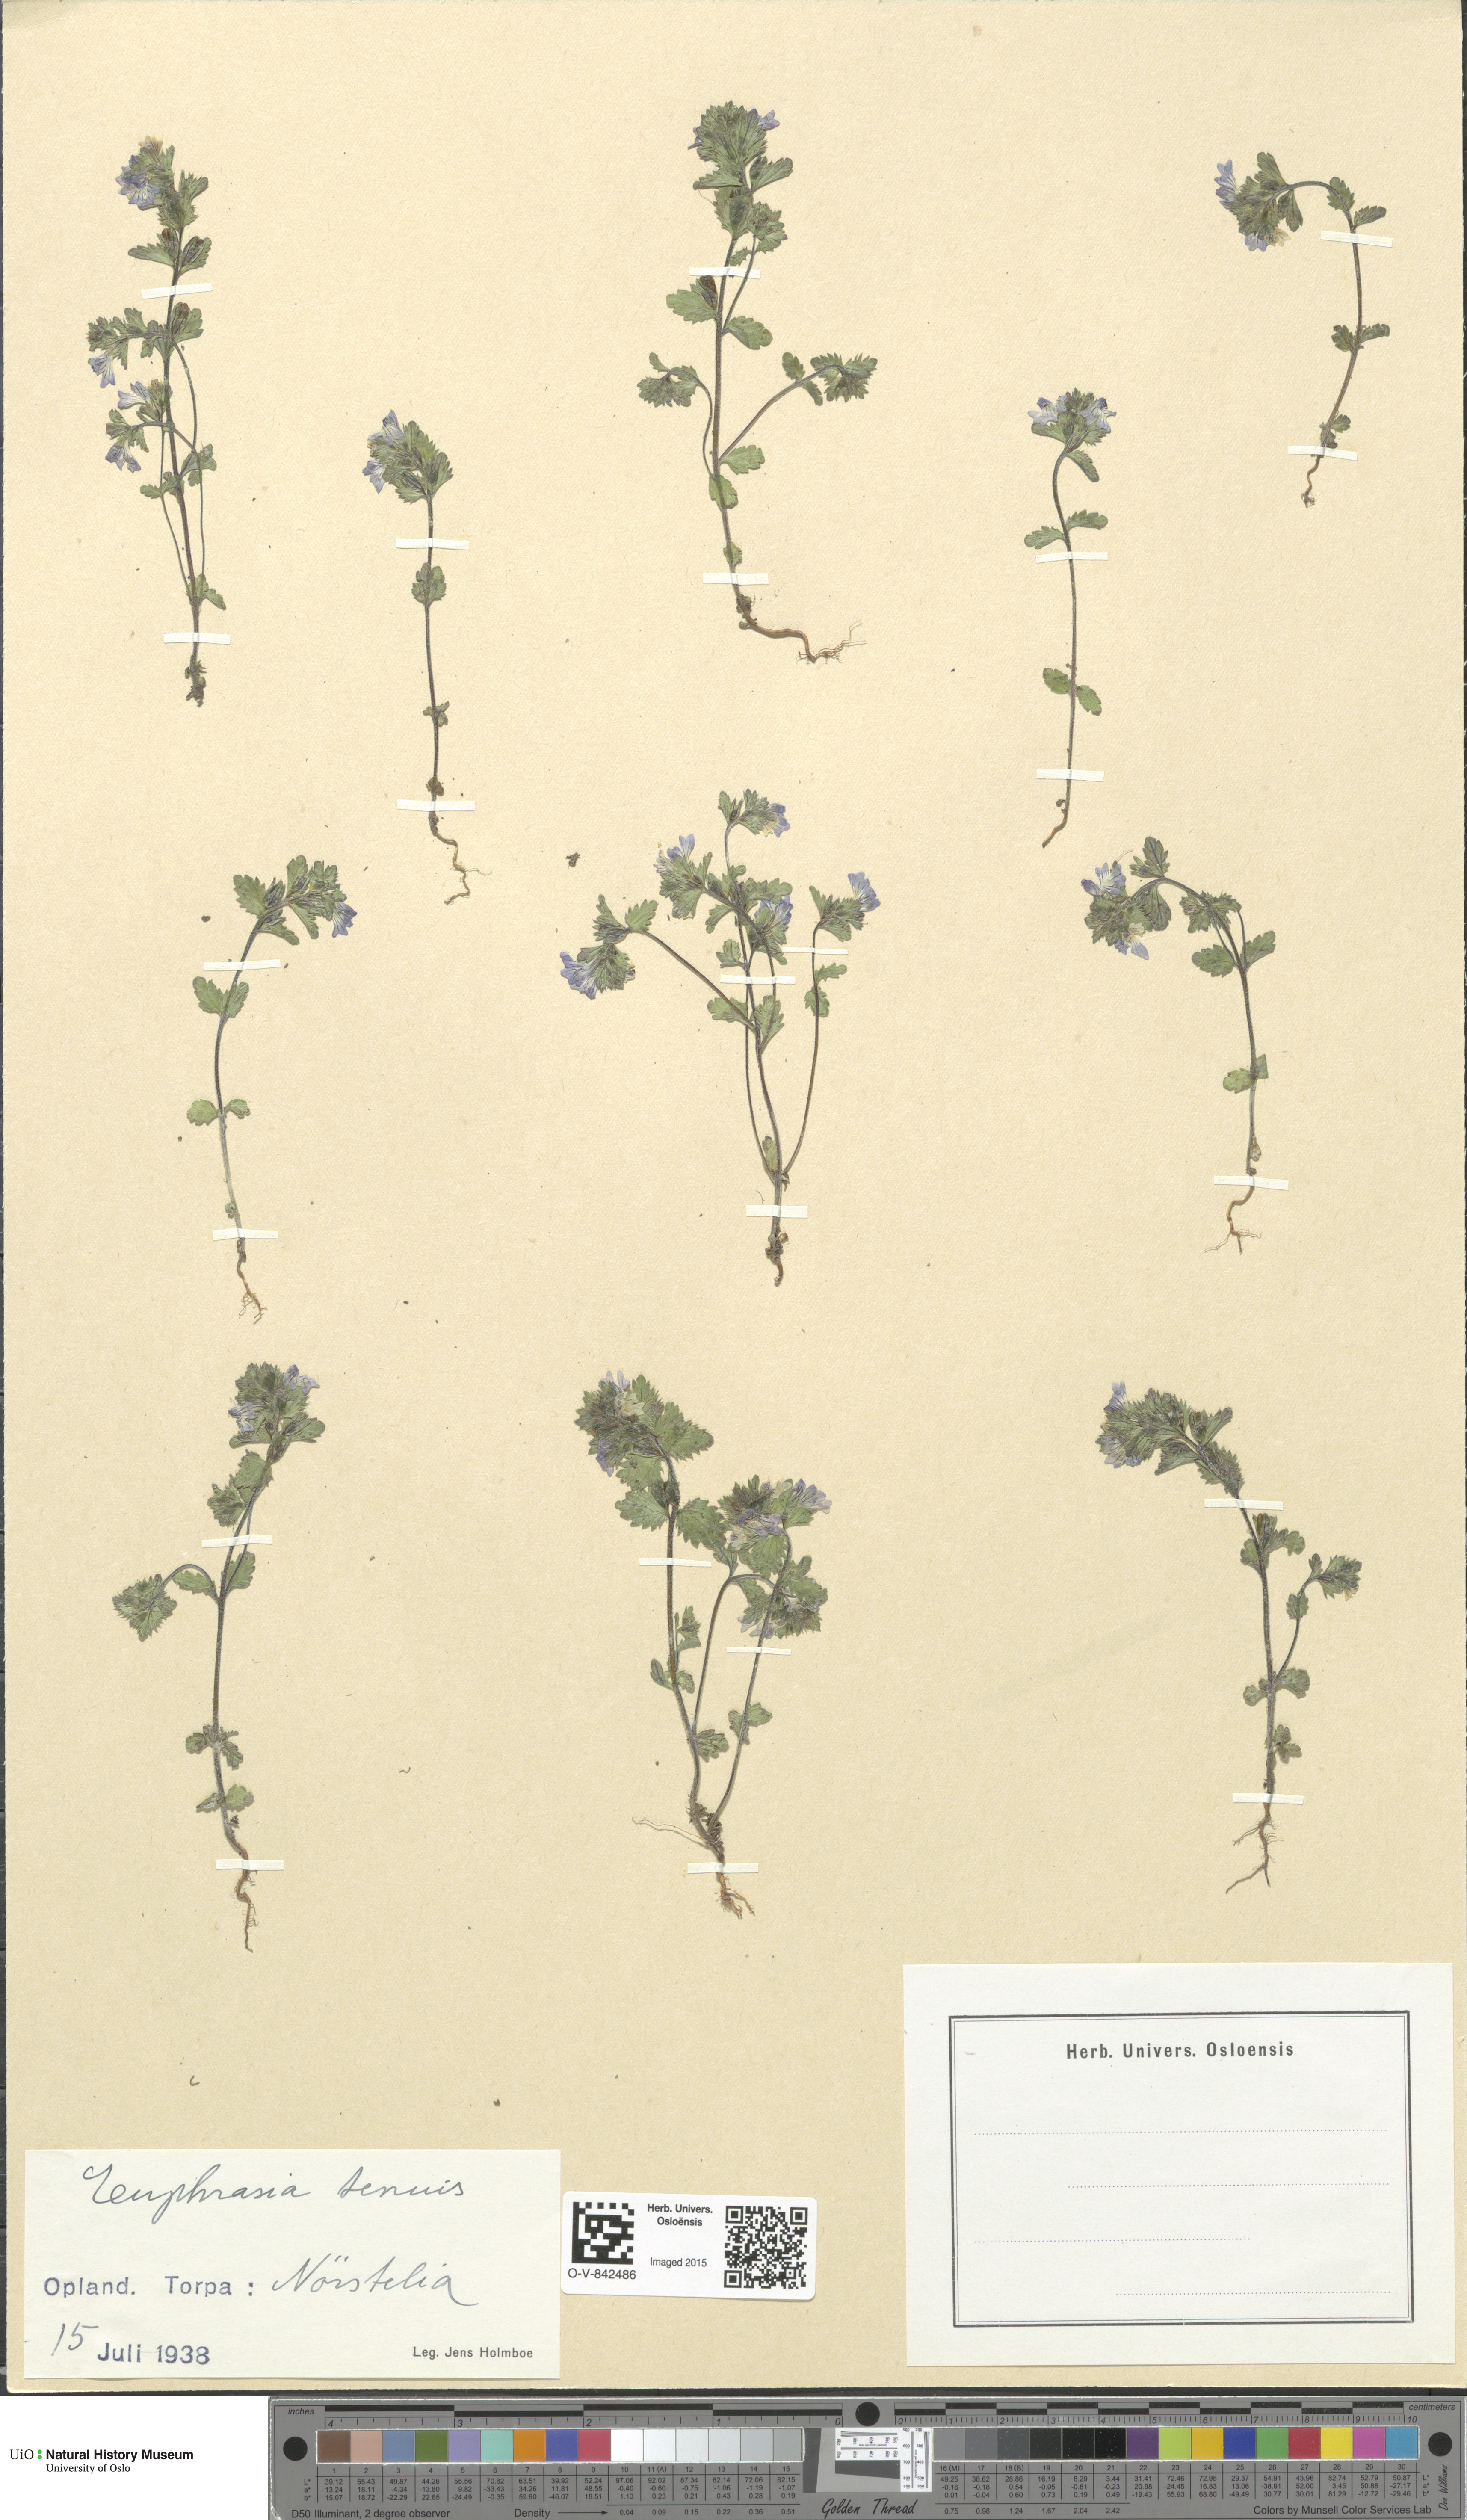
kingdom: Plantae
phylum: Tracheophyta
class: Magnoliopsida
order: Lamiales
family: Orobanchaceae
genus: Euphrasia
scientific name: Euphrasia vernalis
